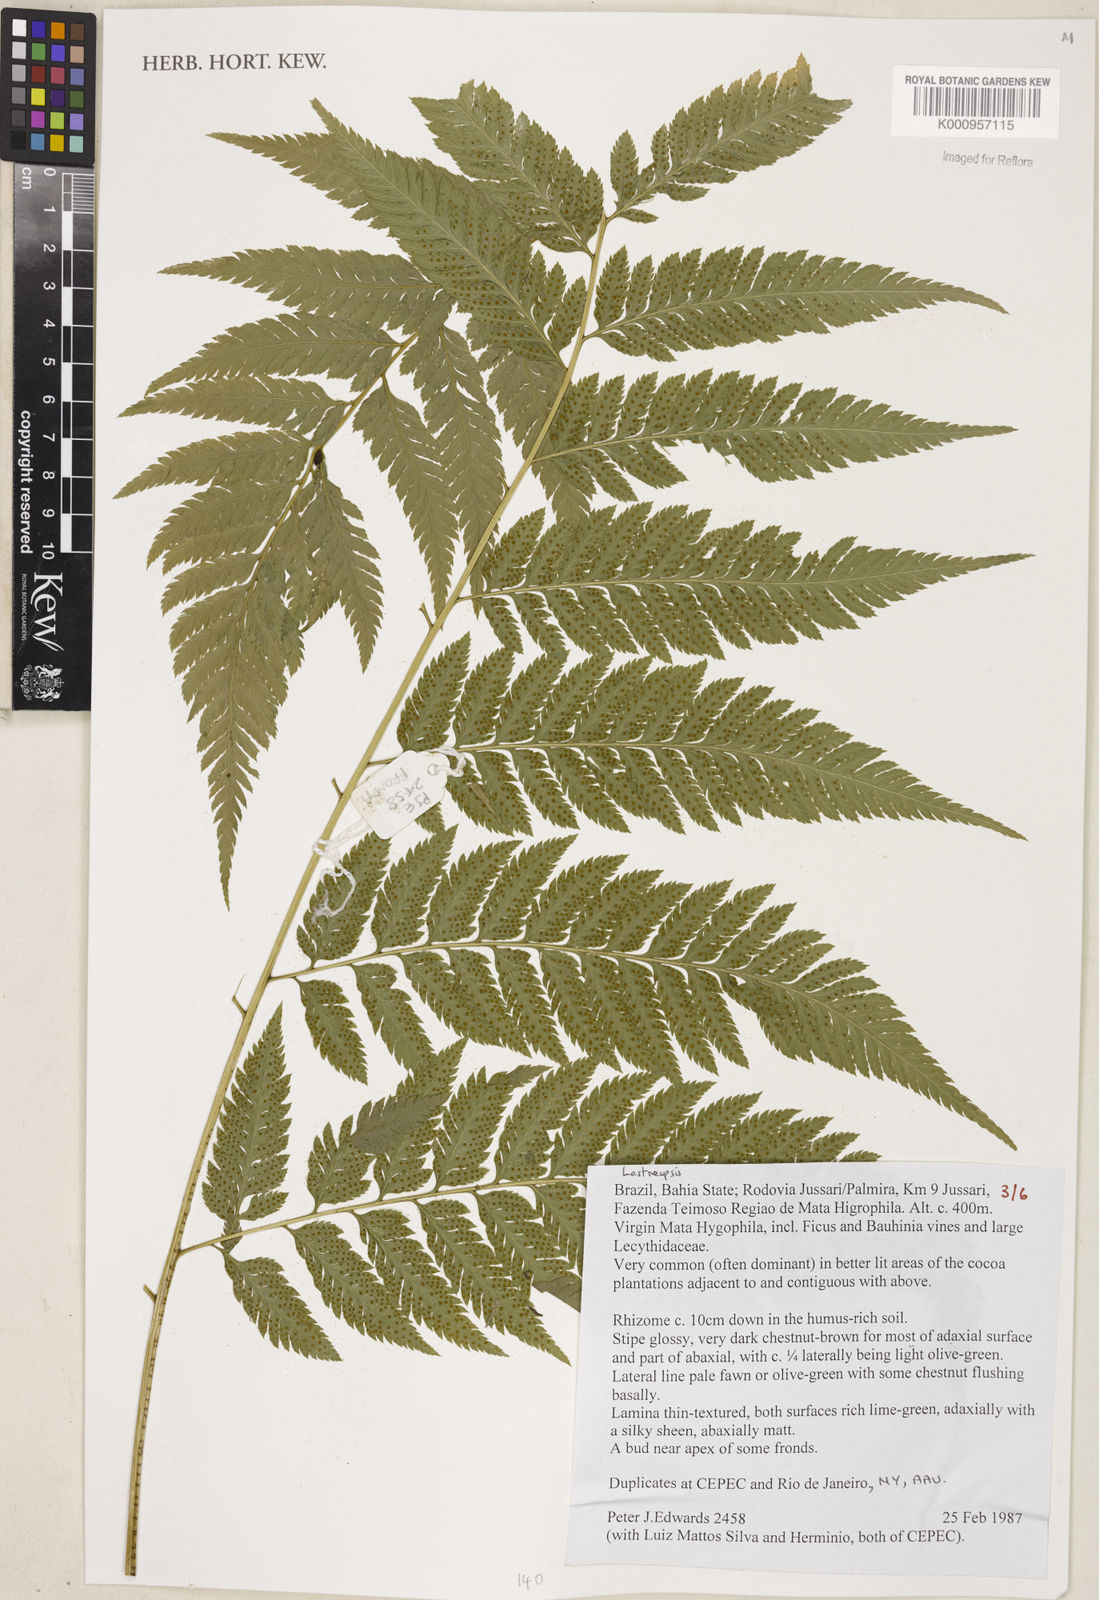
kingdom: Plantae
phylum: Tracheophyta
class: Polypodiopsida
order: Polypodiales
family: Dryopteridaceae
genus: Lastreopsis
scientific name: Lastreopsis
